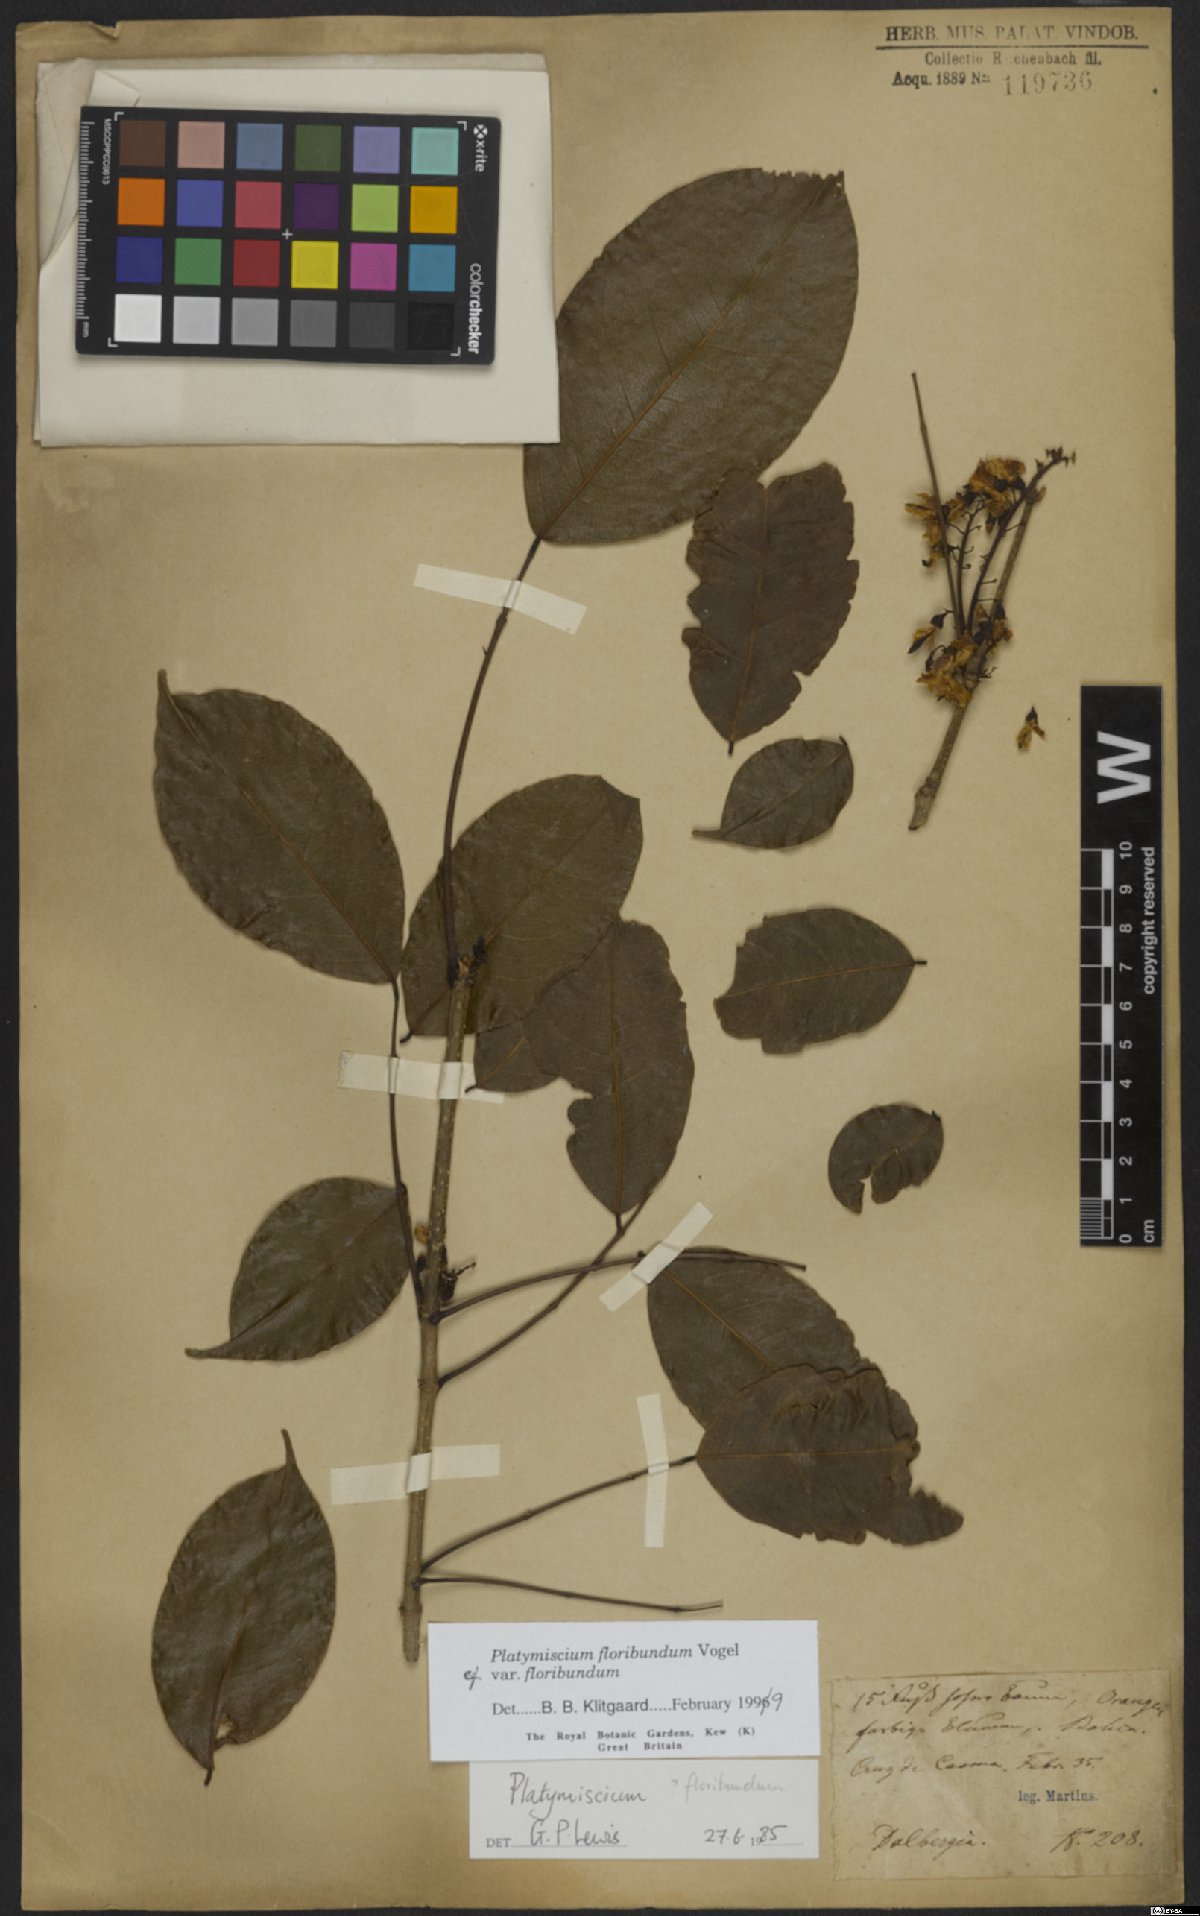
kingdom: Plantae
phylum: Tracheophyta
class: Magnoliopsida
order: Fabales
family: Fabaceae
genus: Platymiscium
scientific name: Platymiscium floribundum
